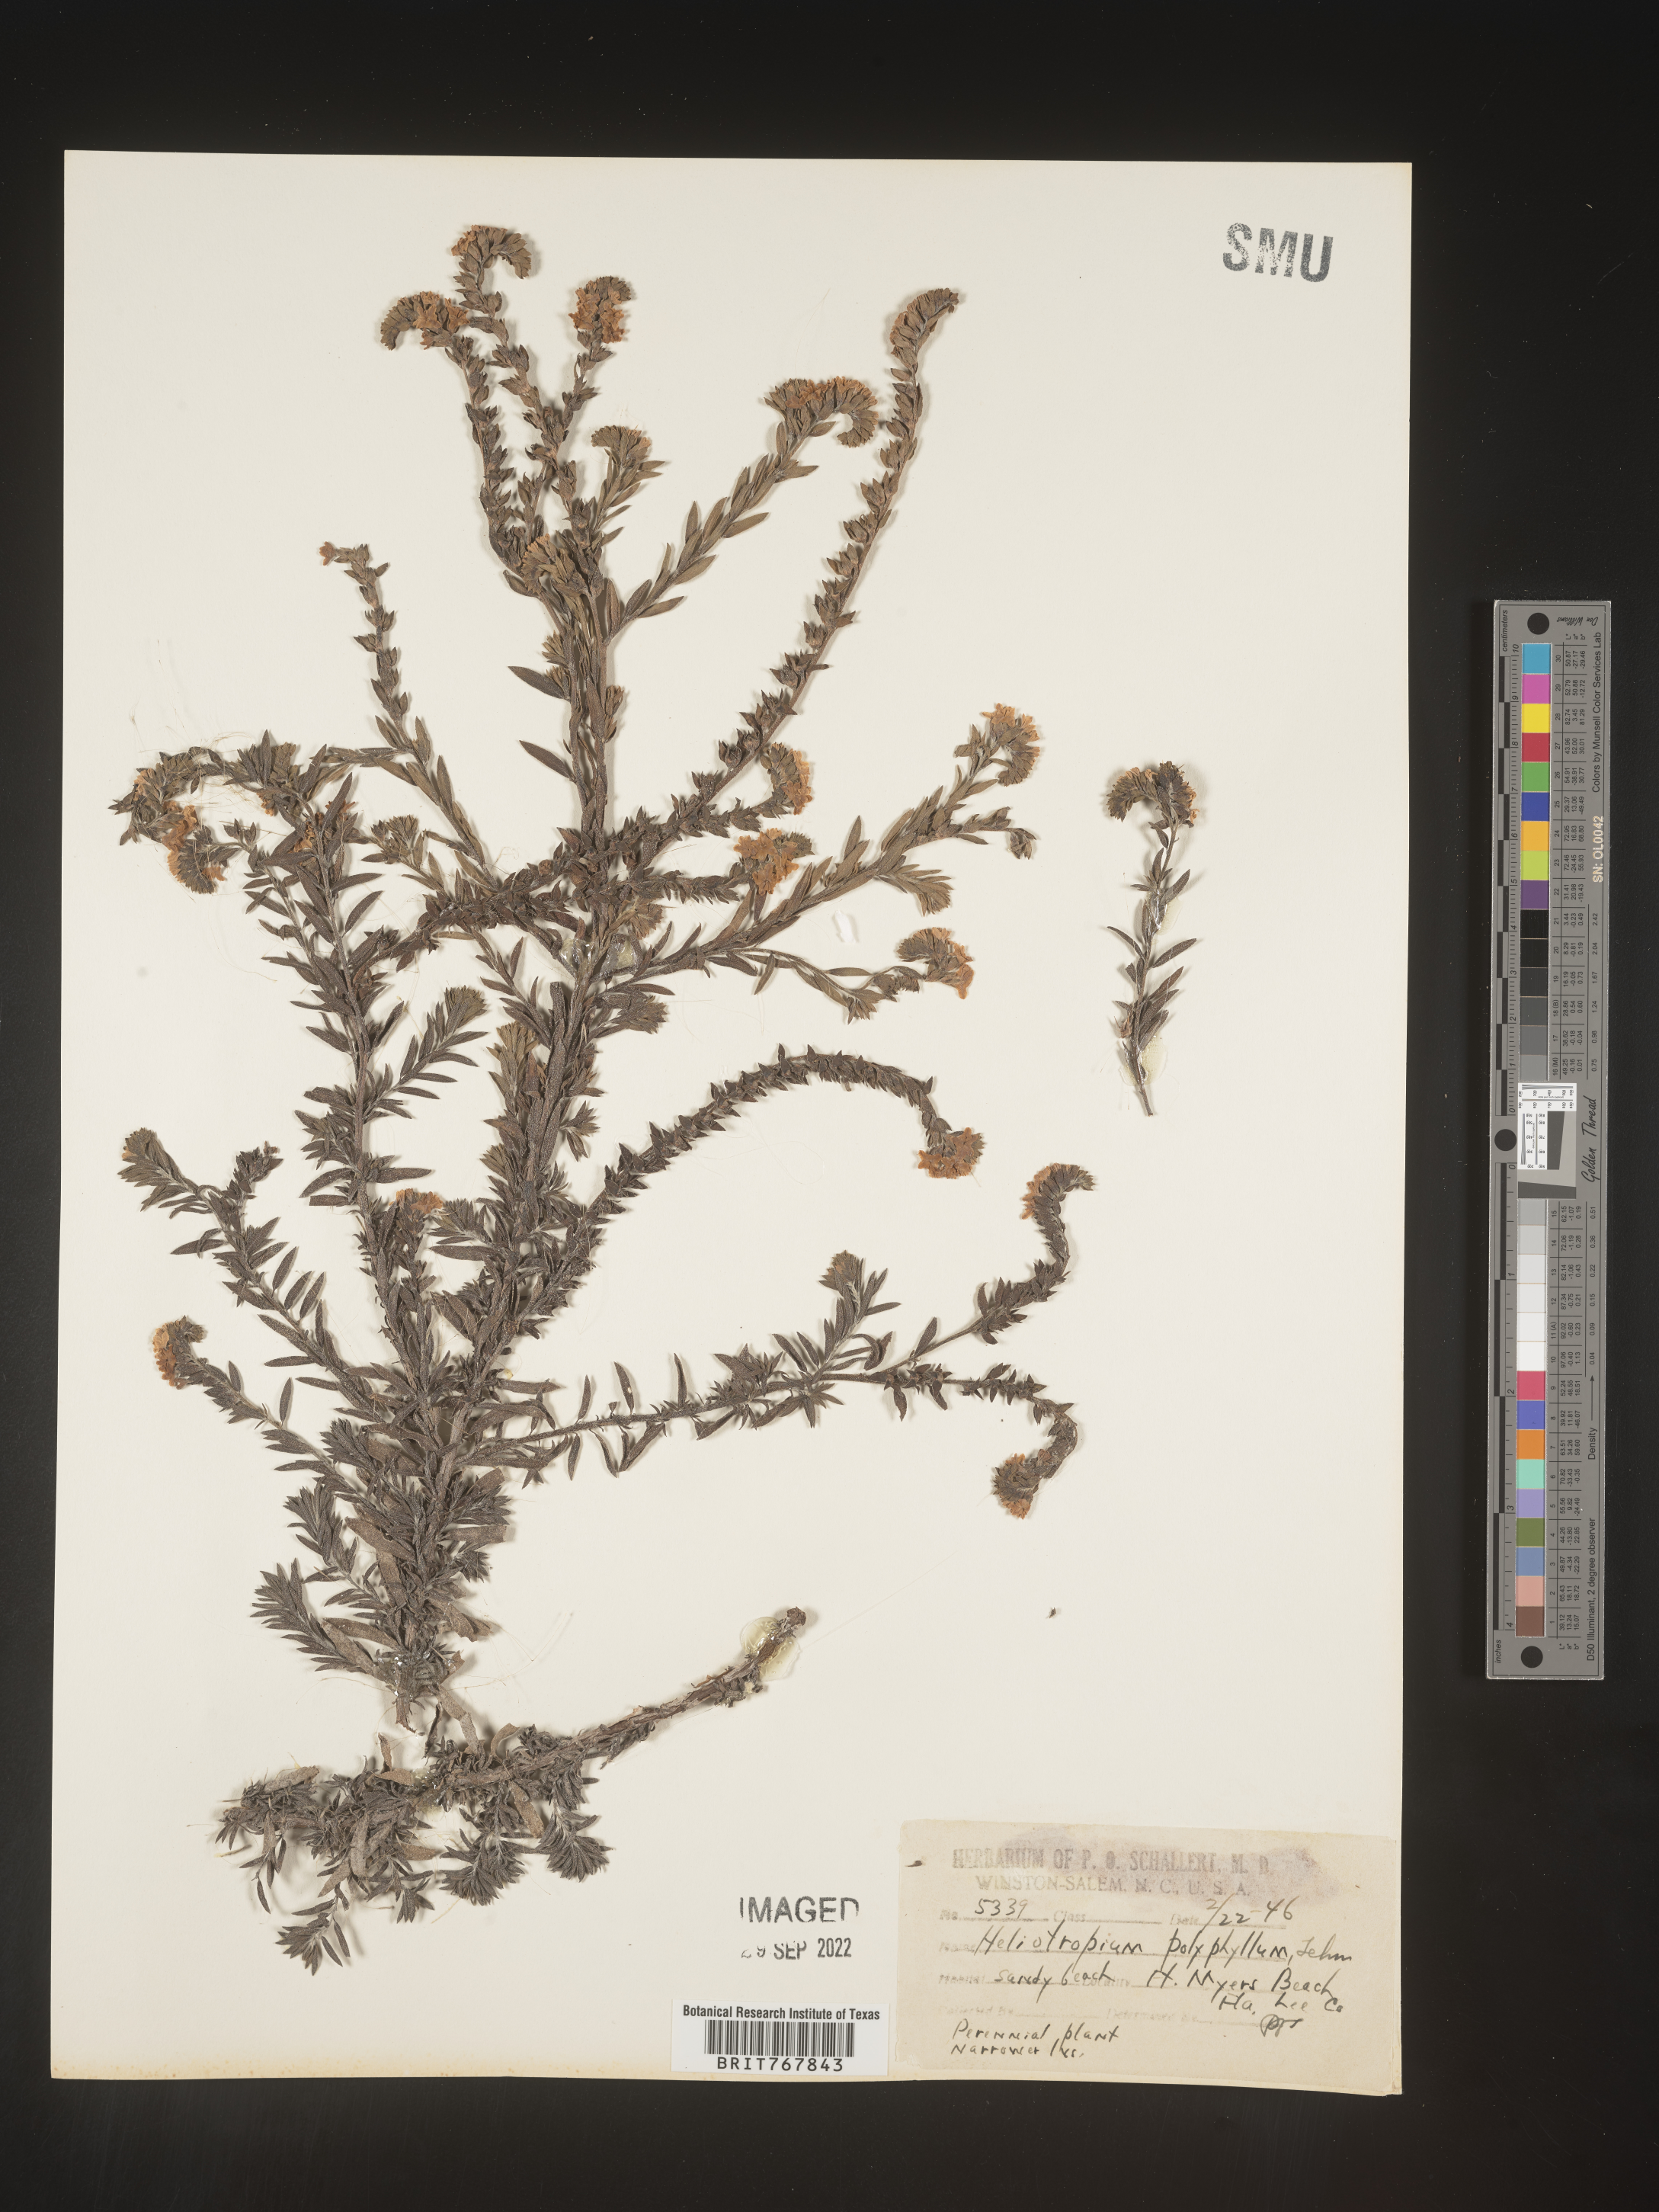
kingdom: Plantae
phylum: Tracheophyta
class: Magnoliopsida
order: Boraginales
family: Heliotropiaceae
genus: Heliotropium
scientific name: Heliotropium
